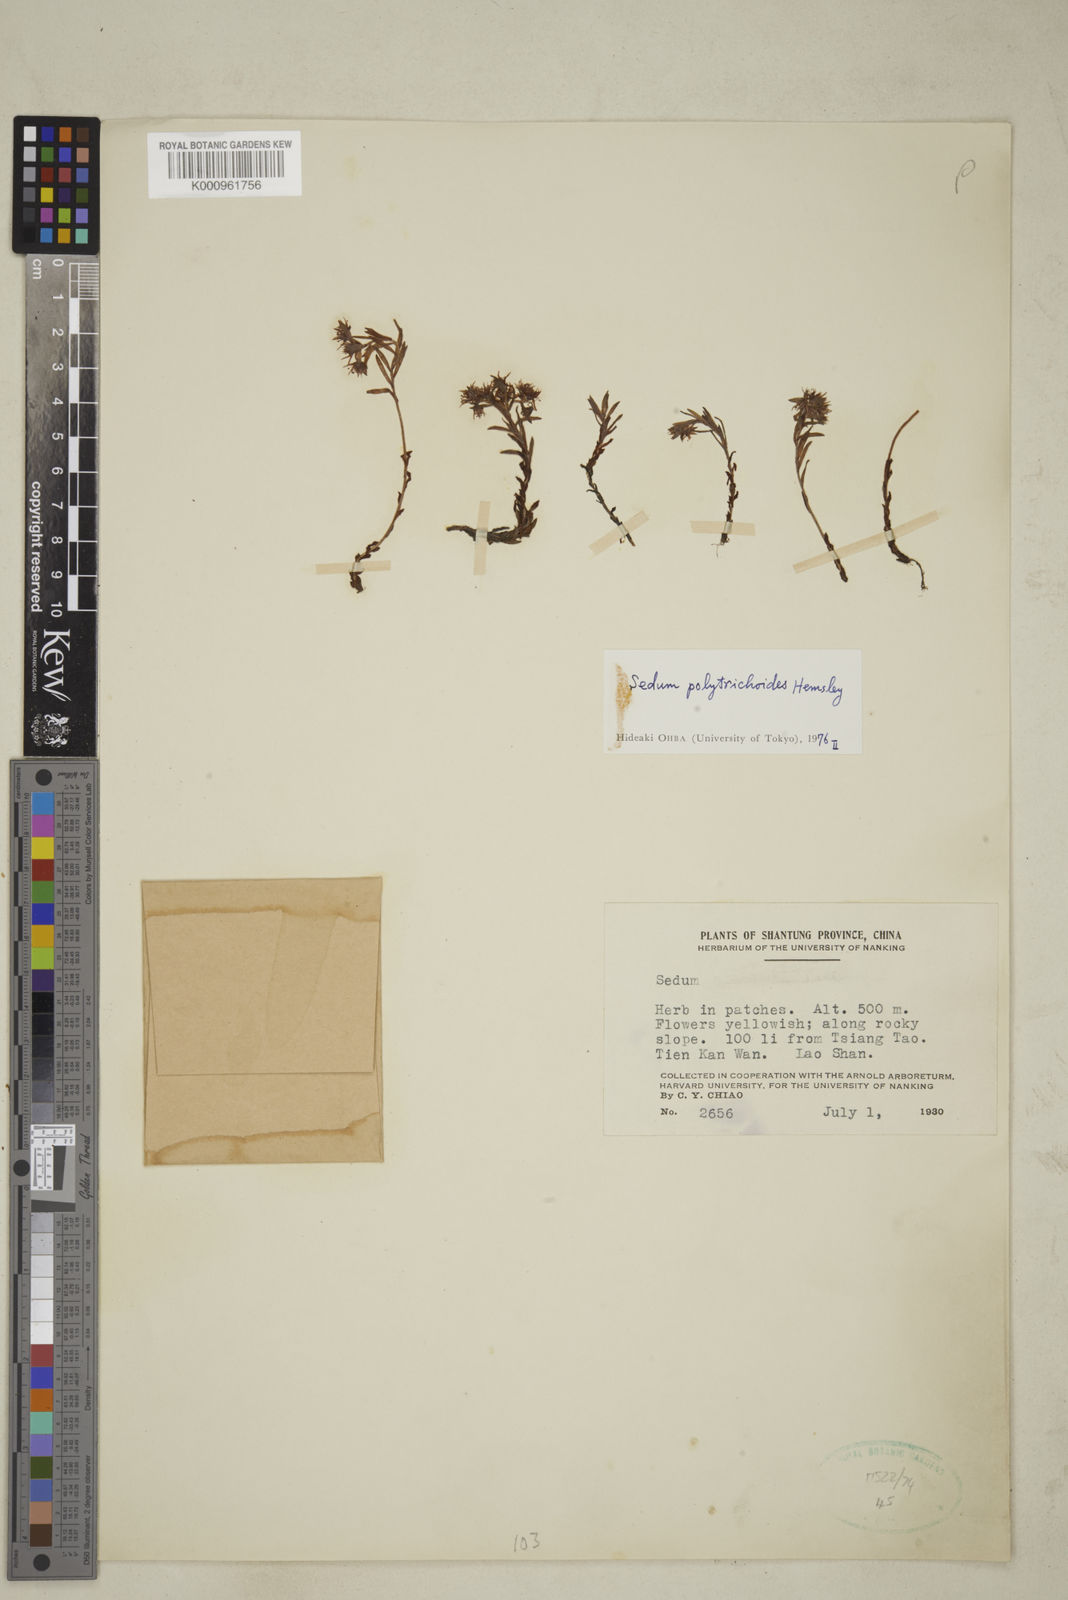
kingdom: Plantae
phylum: Tracheophyta
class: Magnoliopsida
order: Saxifragales
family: Crassulaceae
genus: Sedum
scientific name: Sedum polytrichoides
